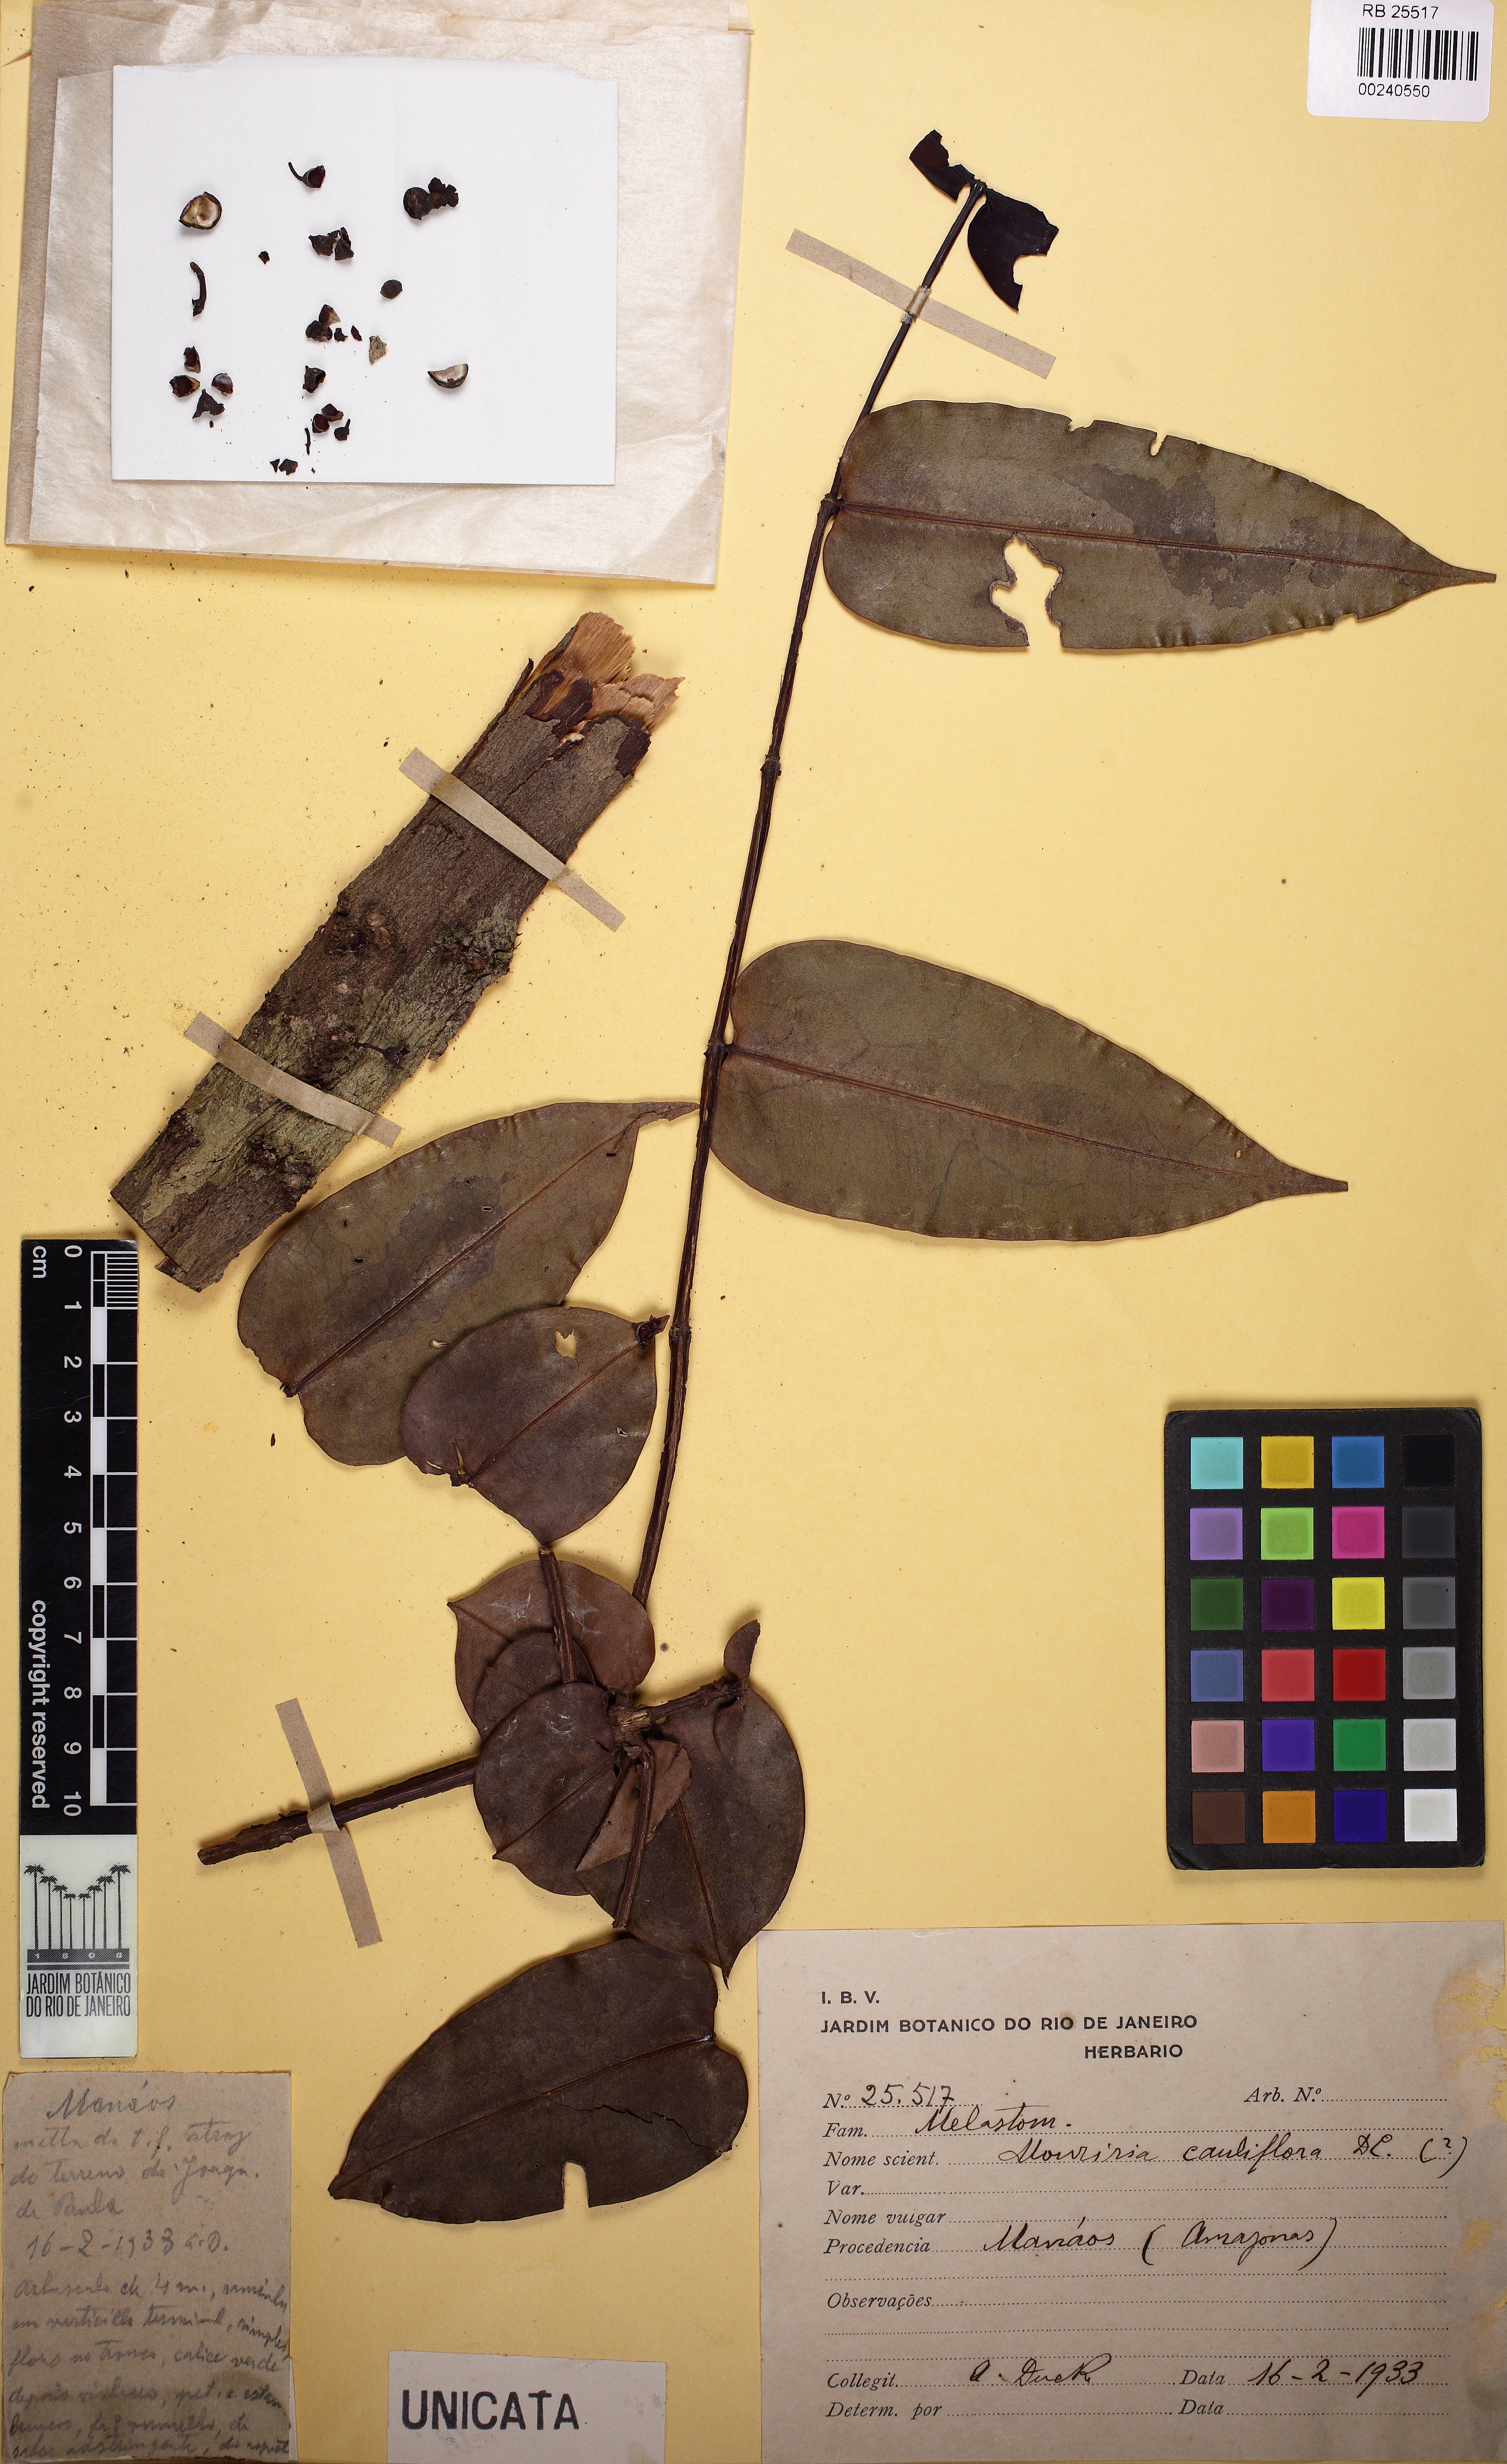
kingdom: Plantae
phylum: Tracheophyta
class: Magnoliopsida
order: Myrtales
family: Melastomataceae
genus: Mouriri
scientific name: Mouriri cauliflora
